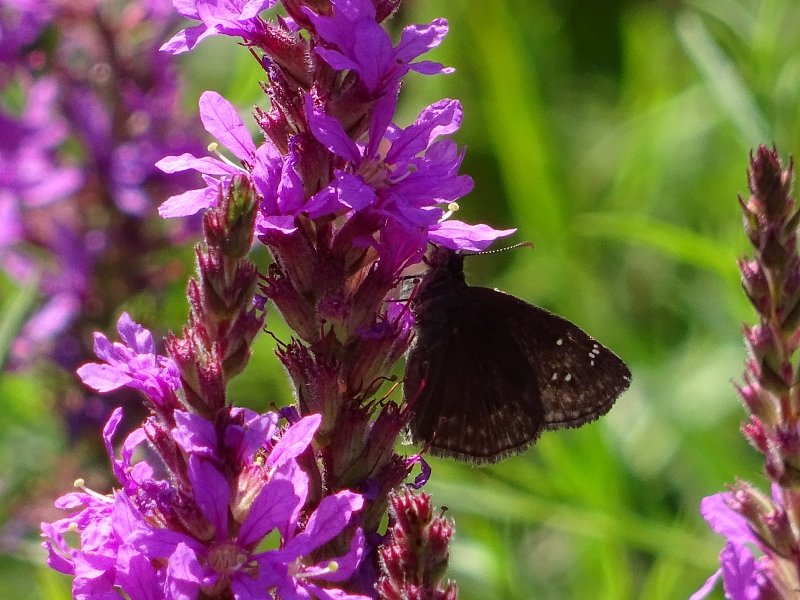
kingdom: Animalia
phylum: Arthropoda
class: Insecta
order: Lepidoptera
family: Hesperiidae
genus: Gesta
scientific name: Gesta
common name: Wild Indigo Duskywing
